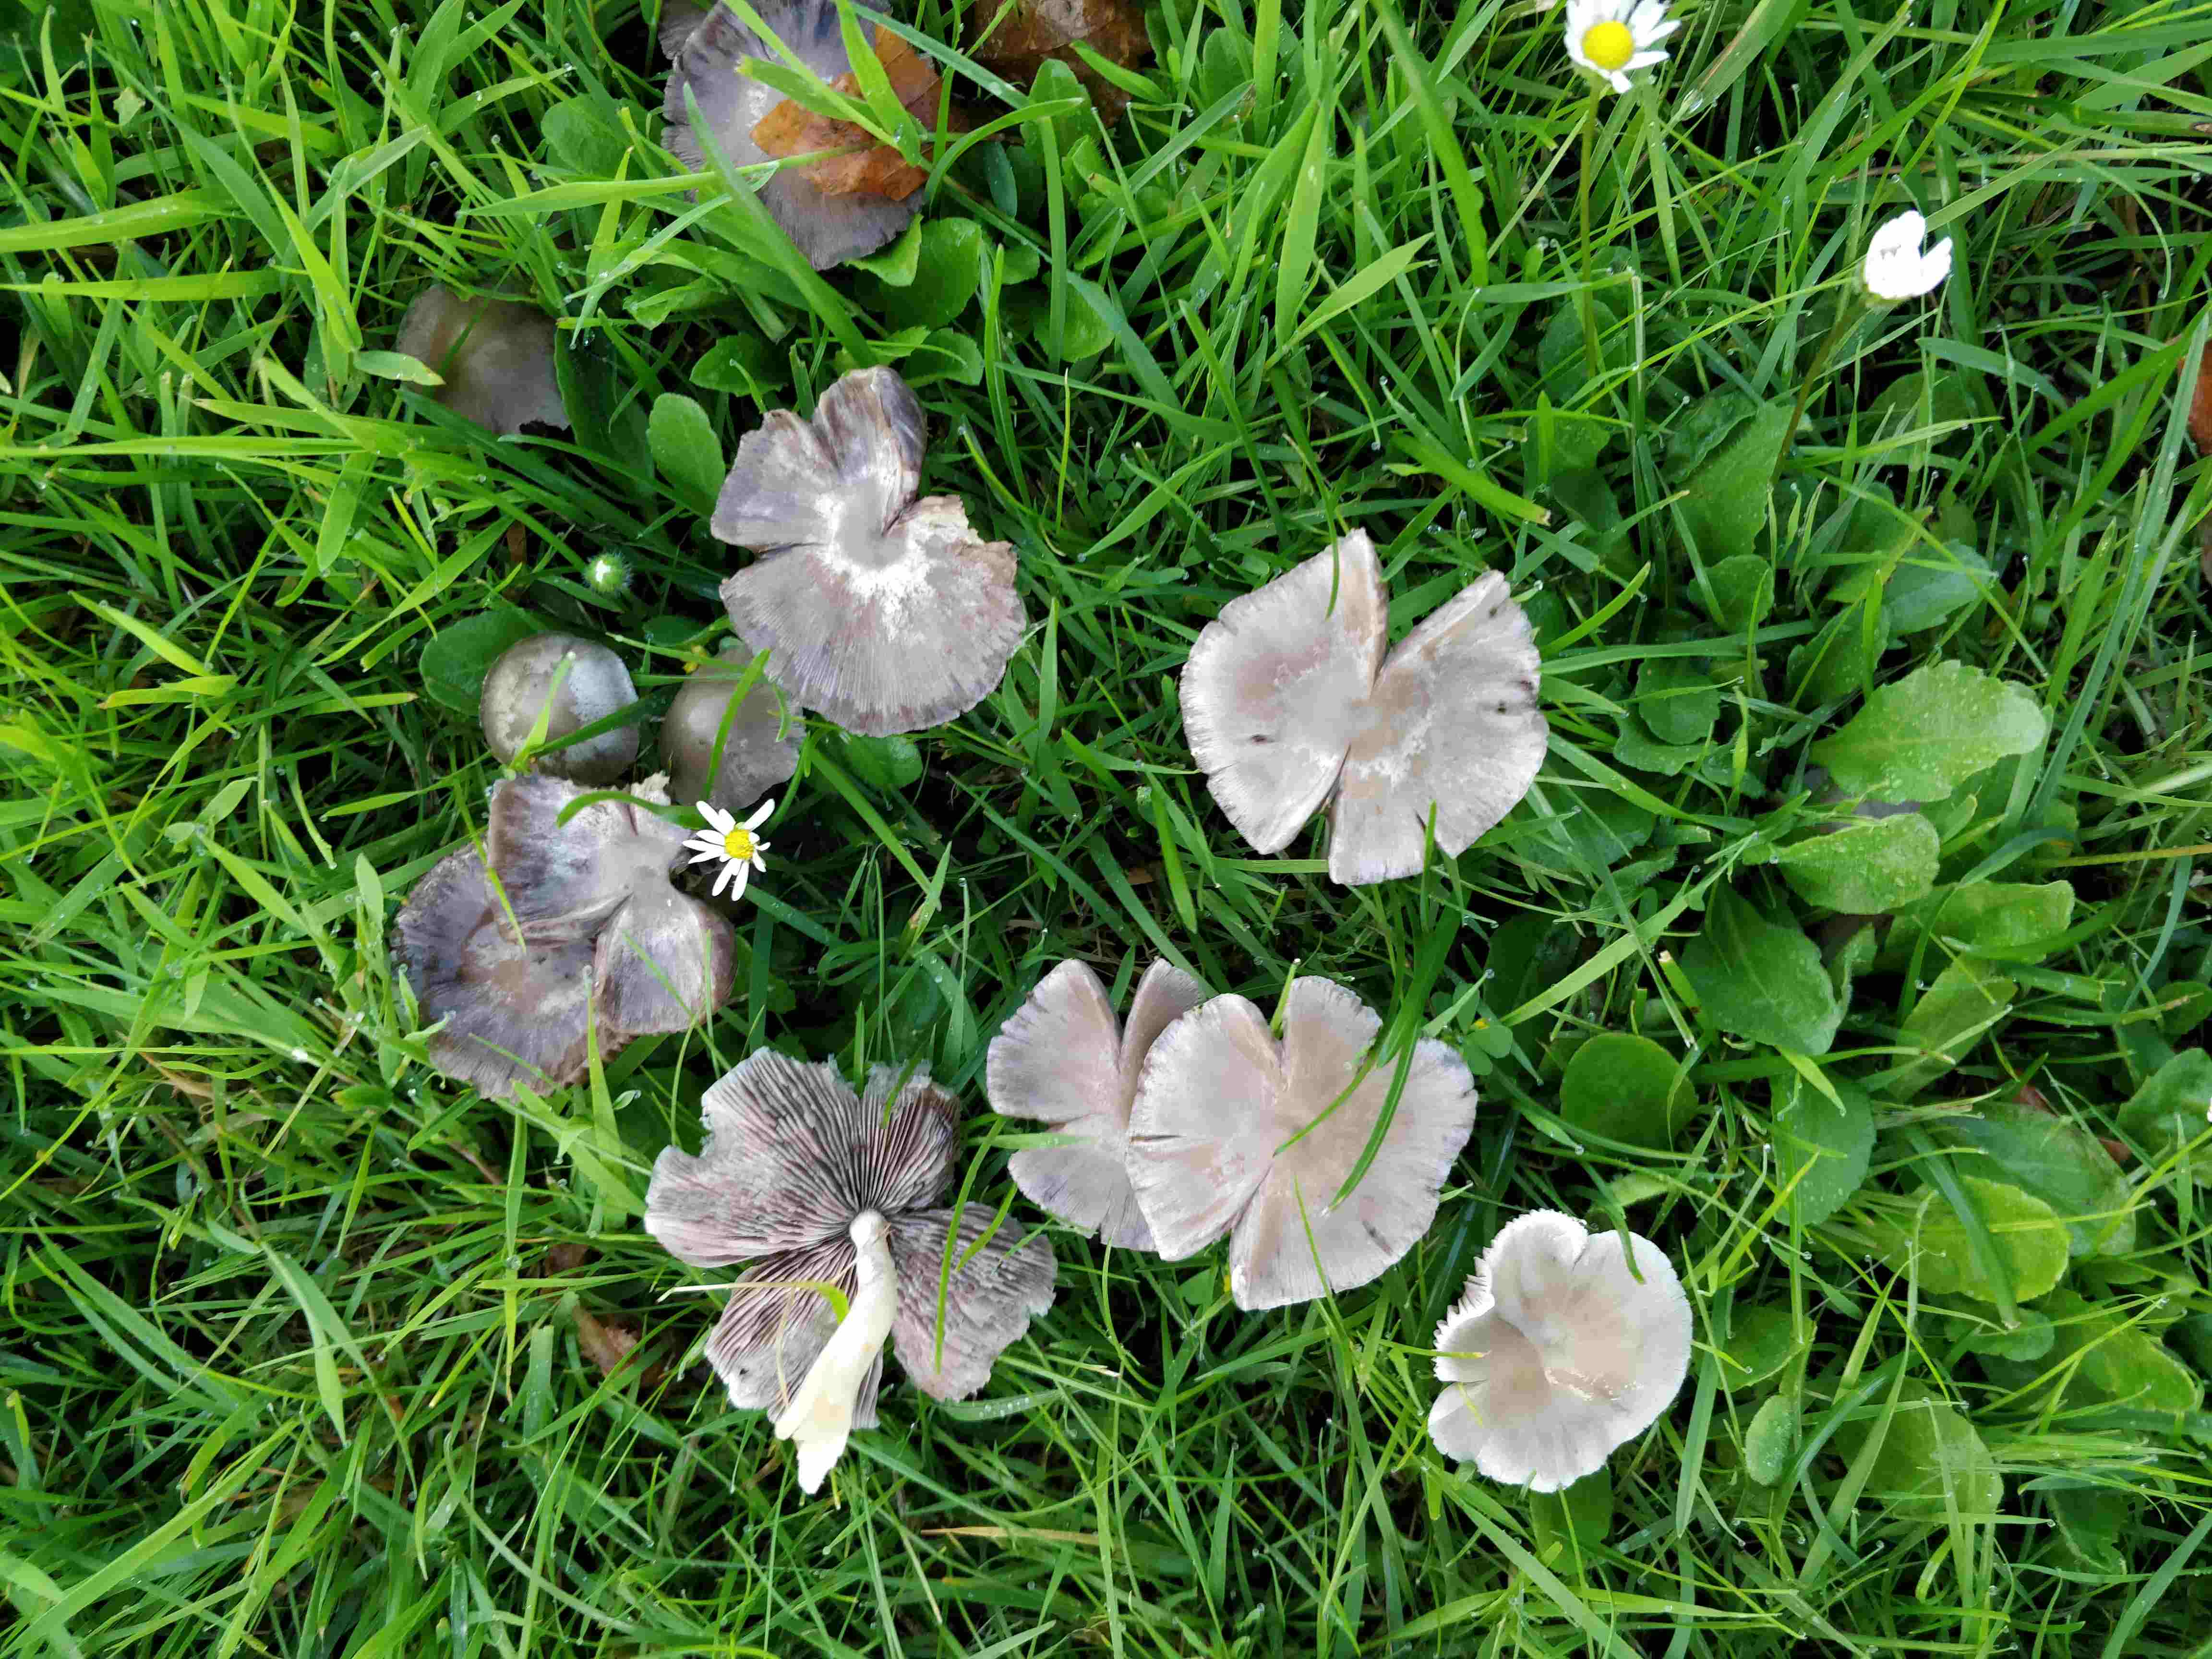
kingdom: Fungi
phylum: Basidiomycota
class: Agaricomycetes
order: Agaricales
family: Psathyrellaceae
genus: Candolleomyces
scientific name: Candolleomyces candolleanus
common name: Candolles mørkhat
